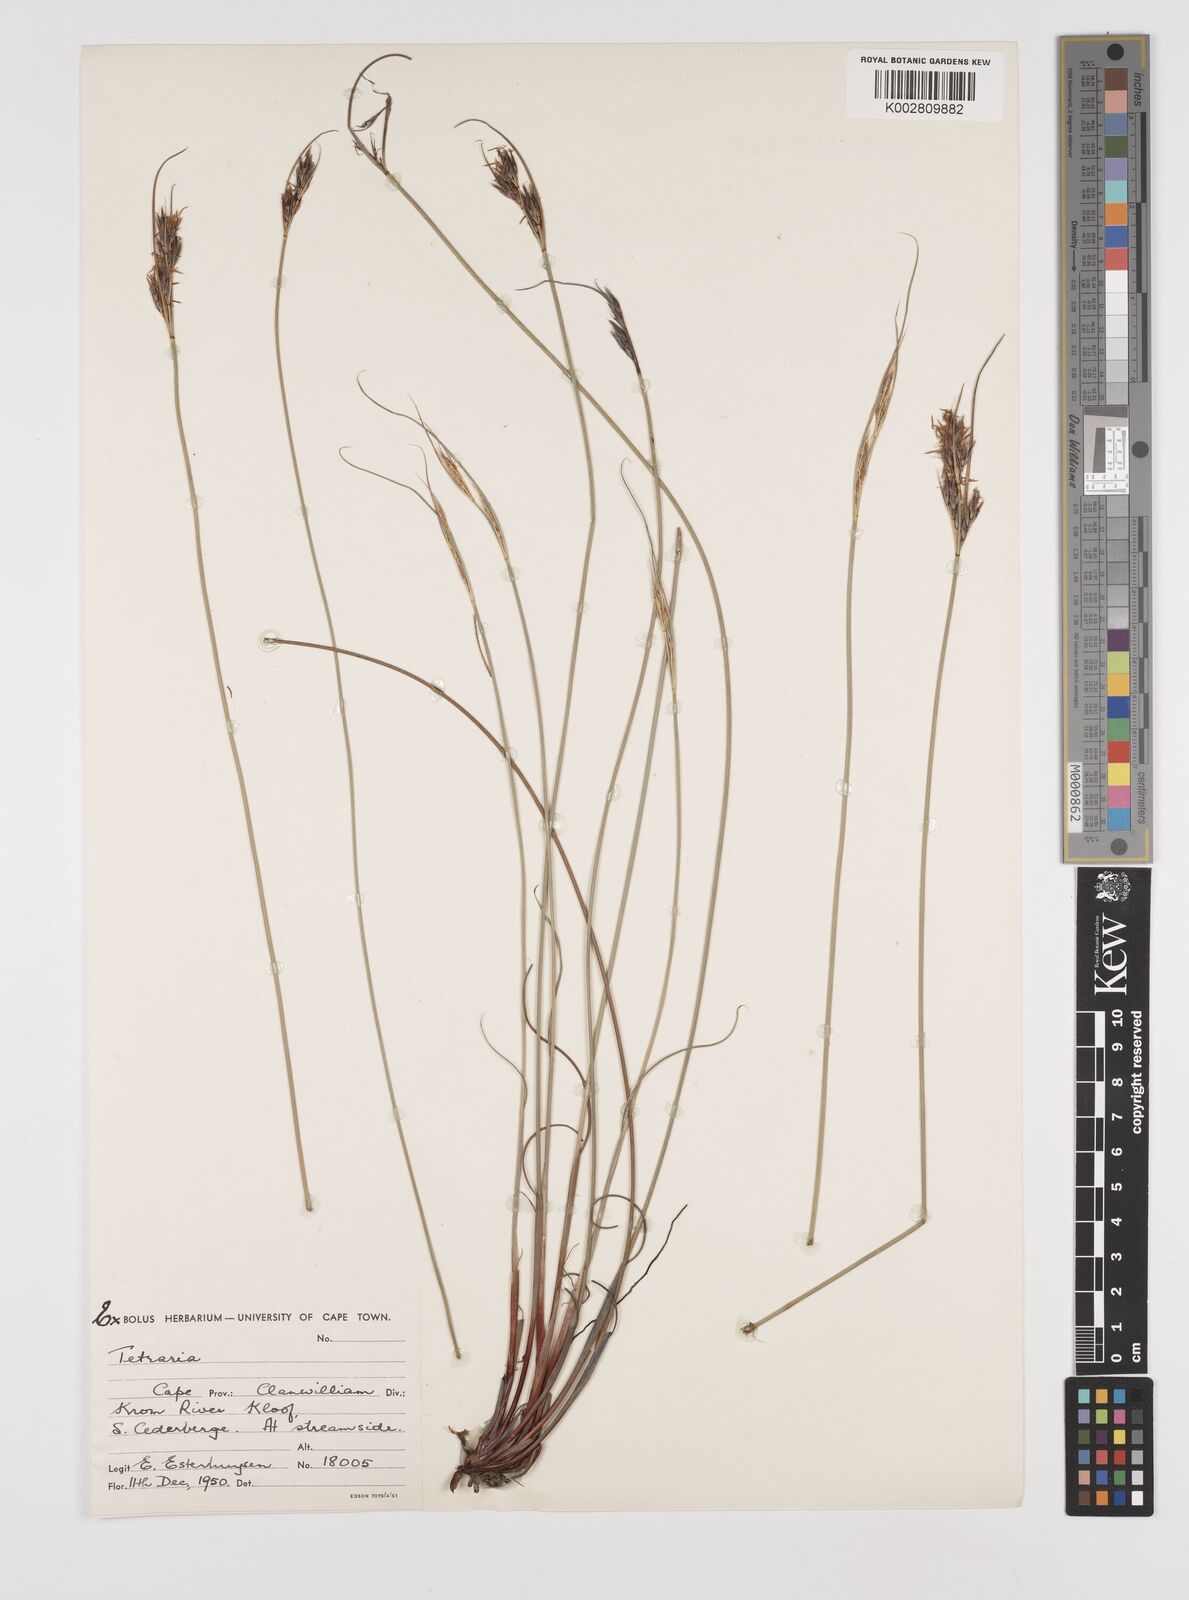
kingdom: Plantae
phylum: Tracheophyta
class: Liliopsida
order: Poales
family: Cyperaceae
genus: Schoenus
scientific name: Schoenus
